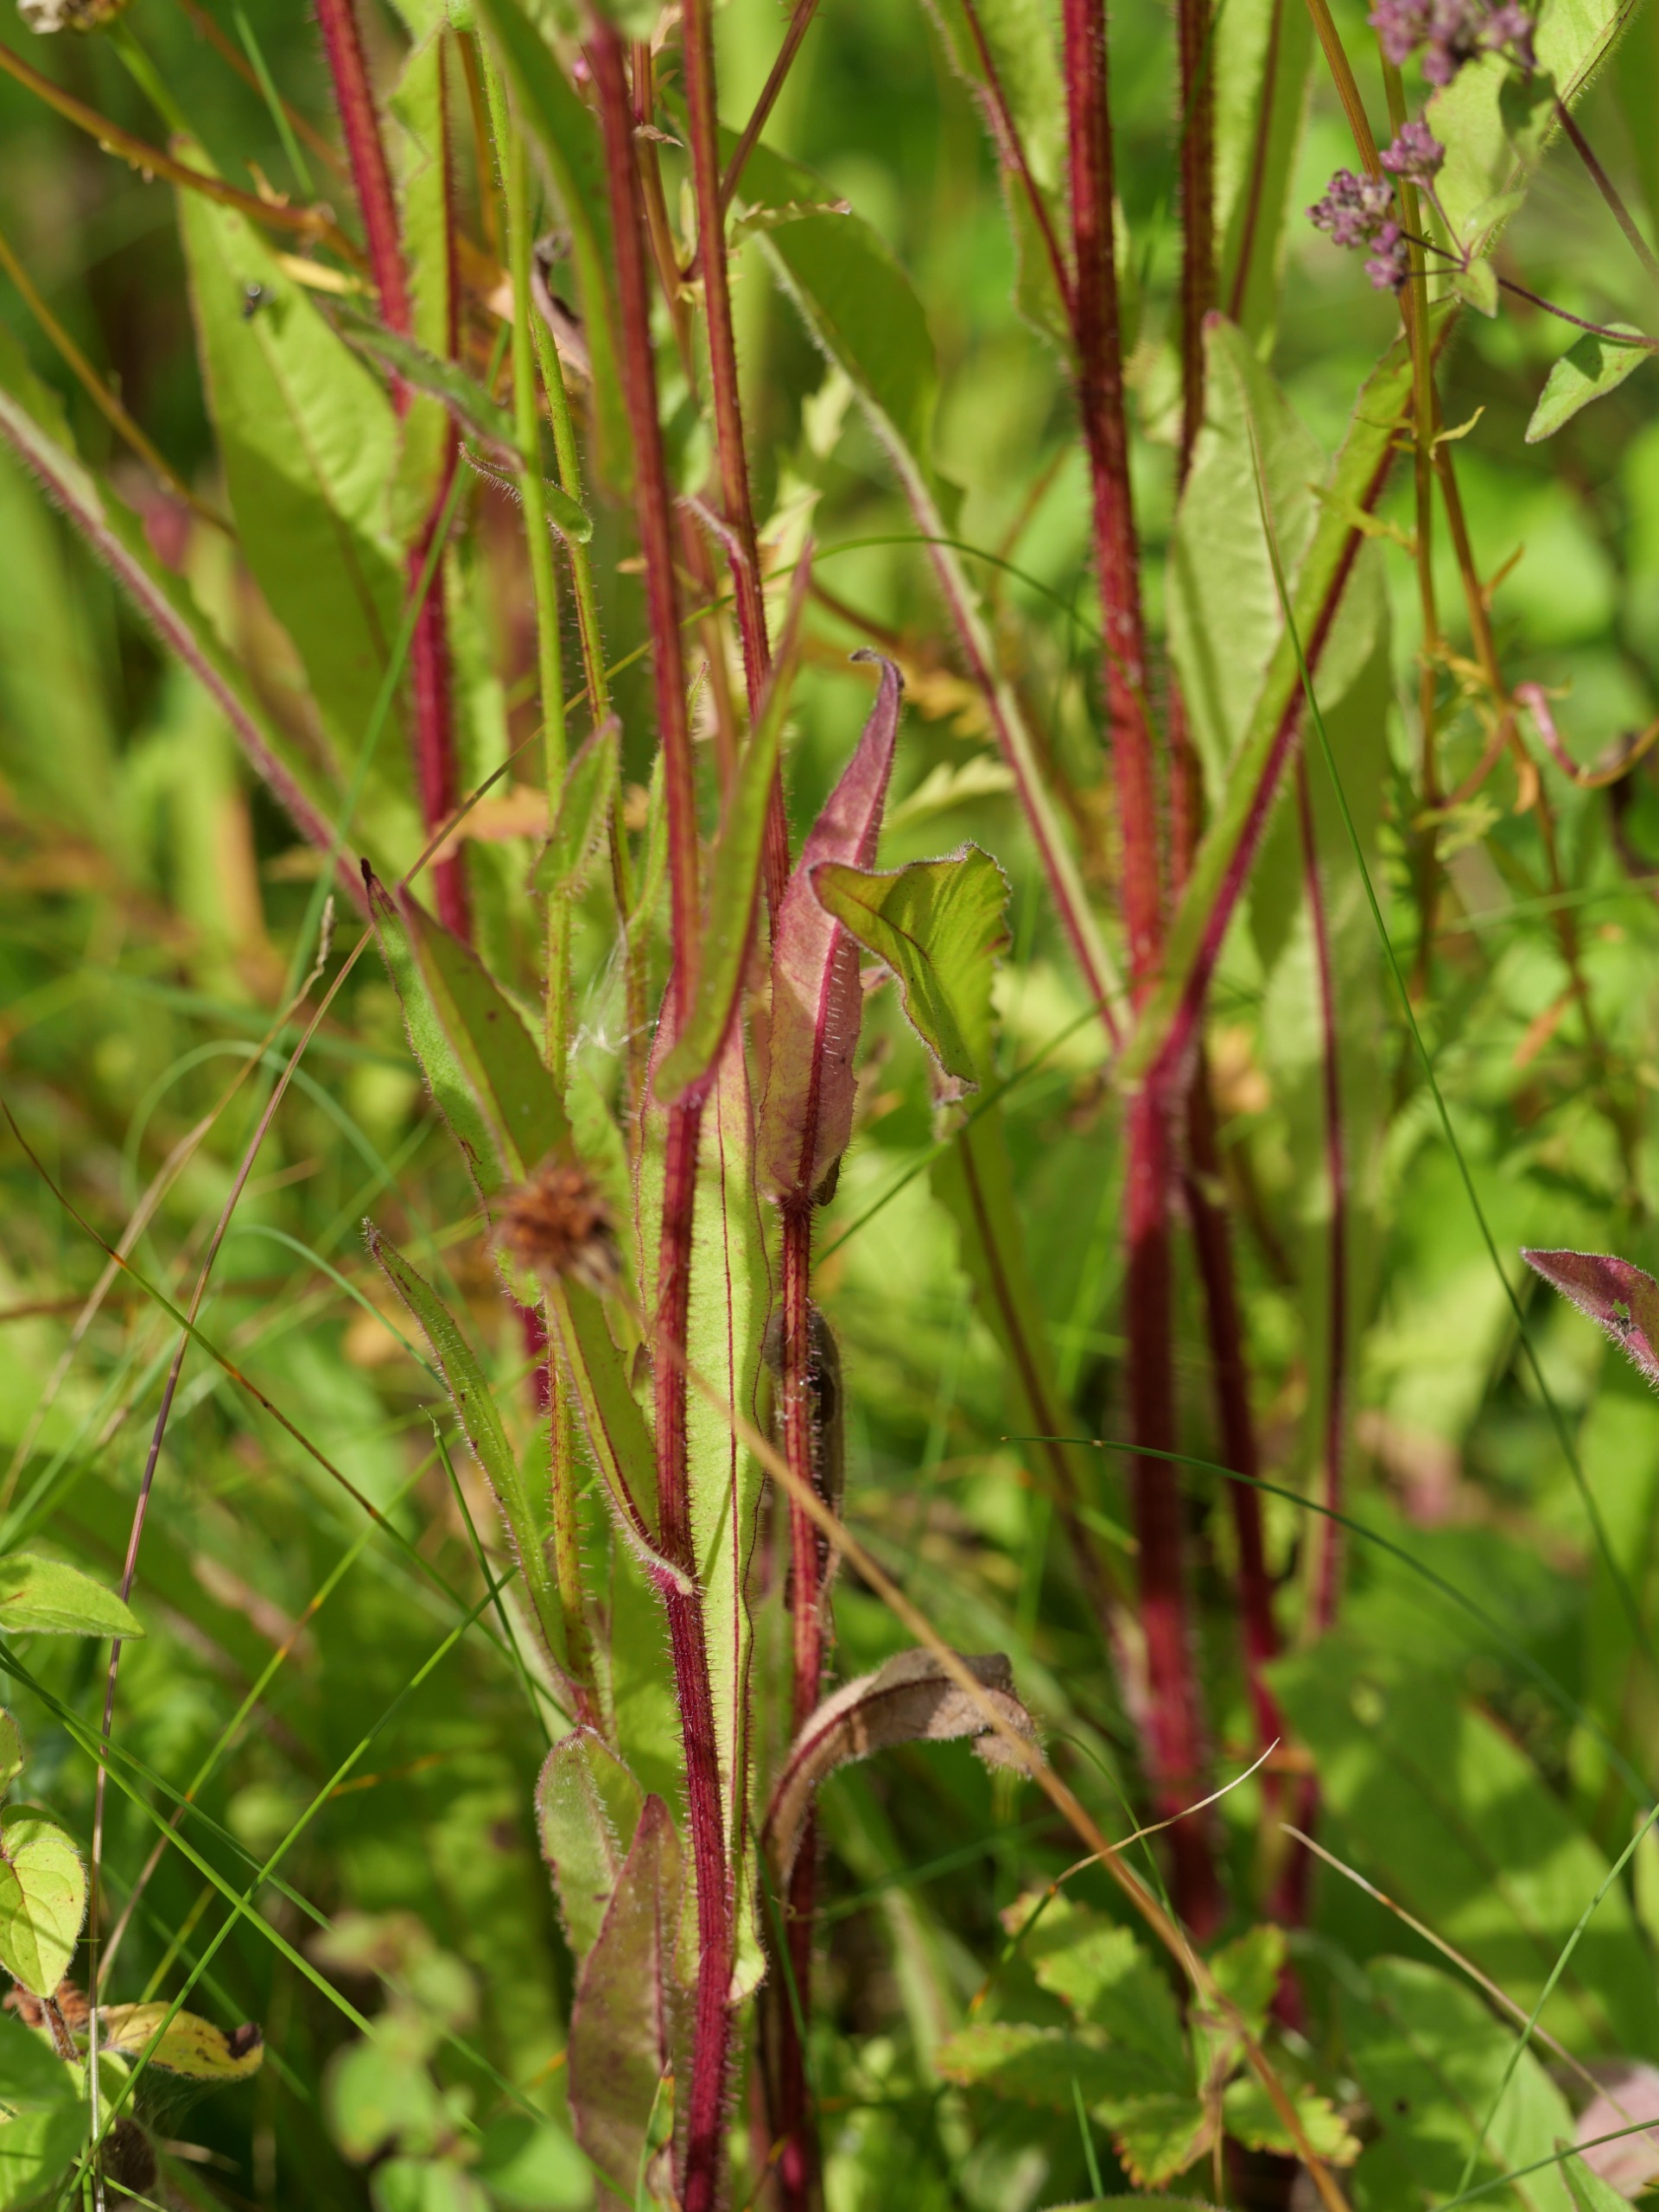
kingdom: Plantae
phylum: Tracheophyta
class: Magnoliopsida
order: Asterales
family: Asteraceae
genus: Picris
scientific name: Picris hieracioides
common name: Ru bittermælk
